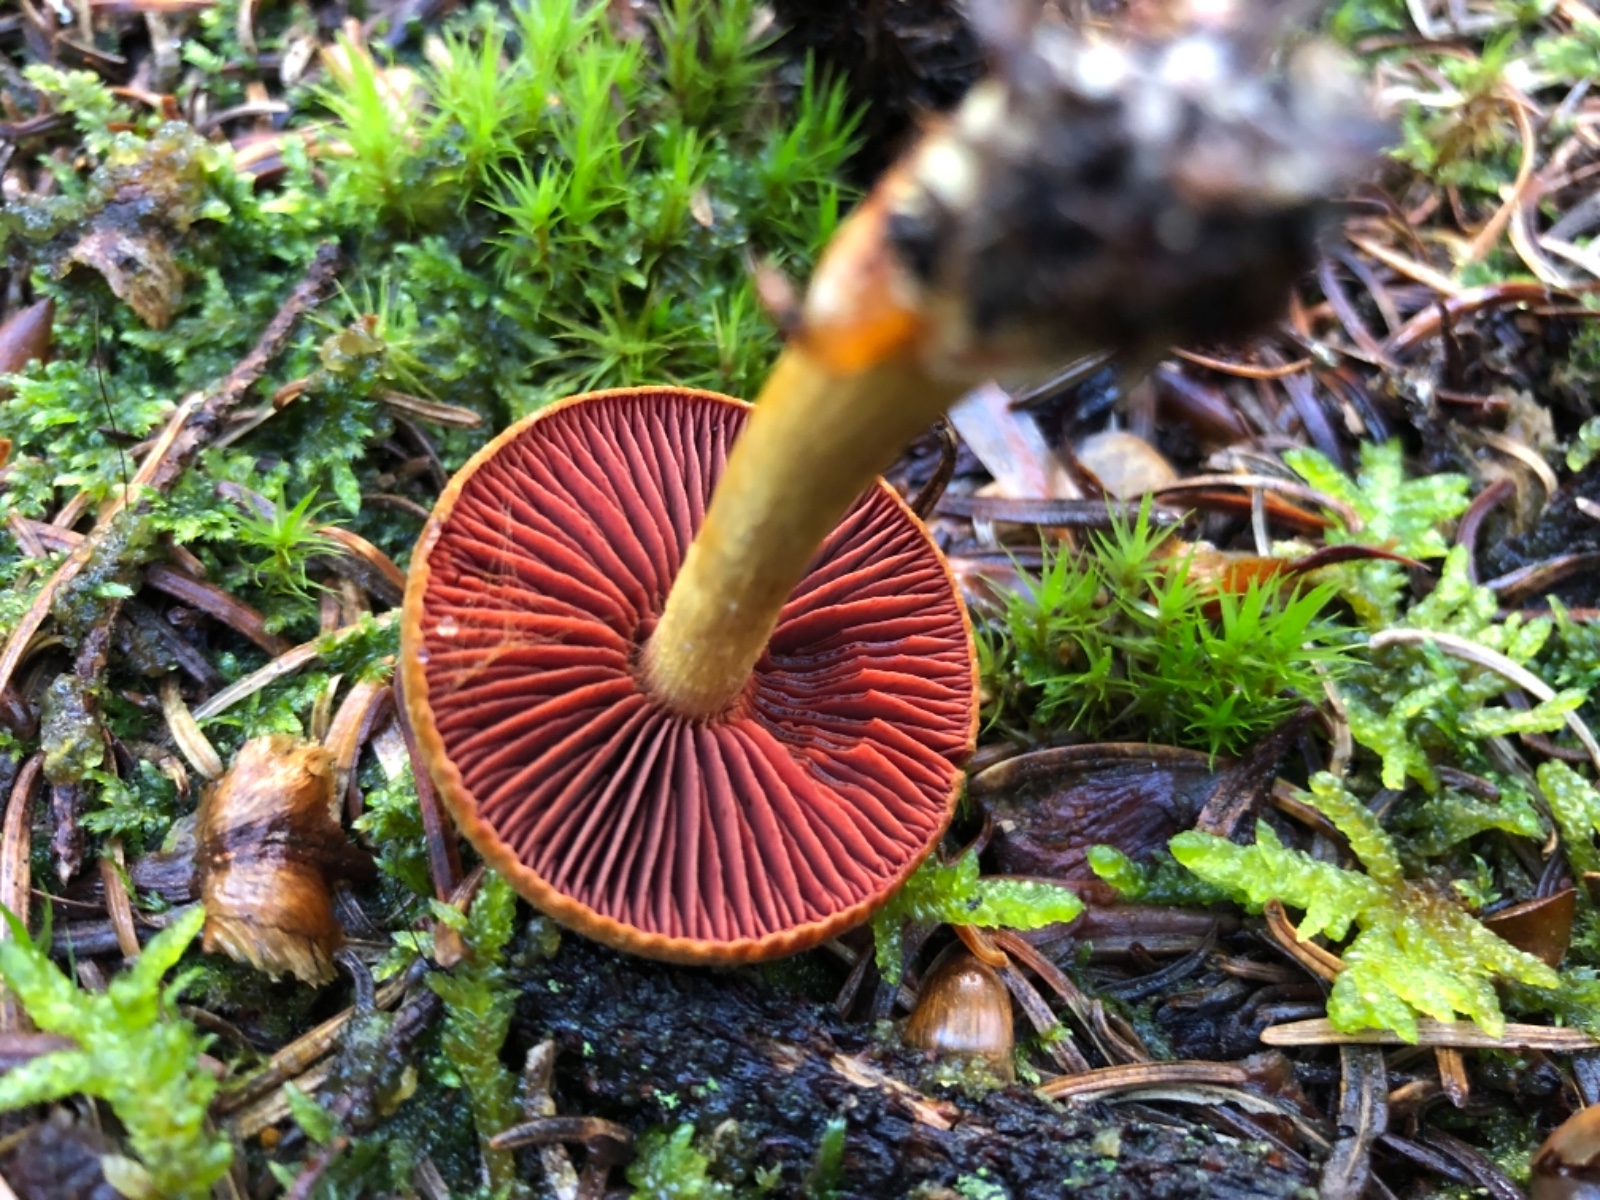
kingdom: Fungi
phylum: Basidiomycota
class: Agaricomycetes
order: Agaricales
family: Cortinariaceae
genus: Cortinarius
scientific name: Cortinarius
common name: cinnoberbladet slørhat
